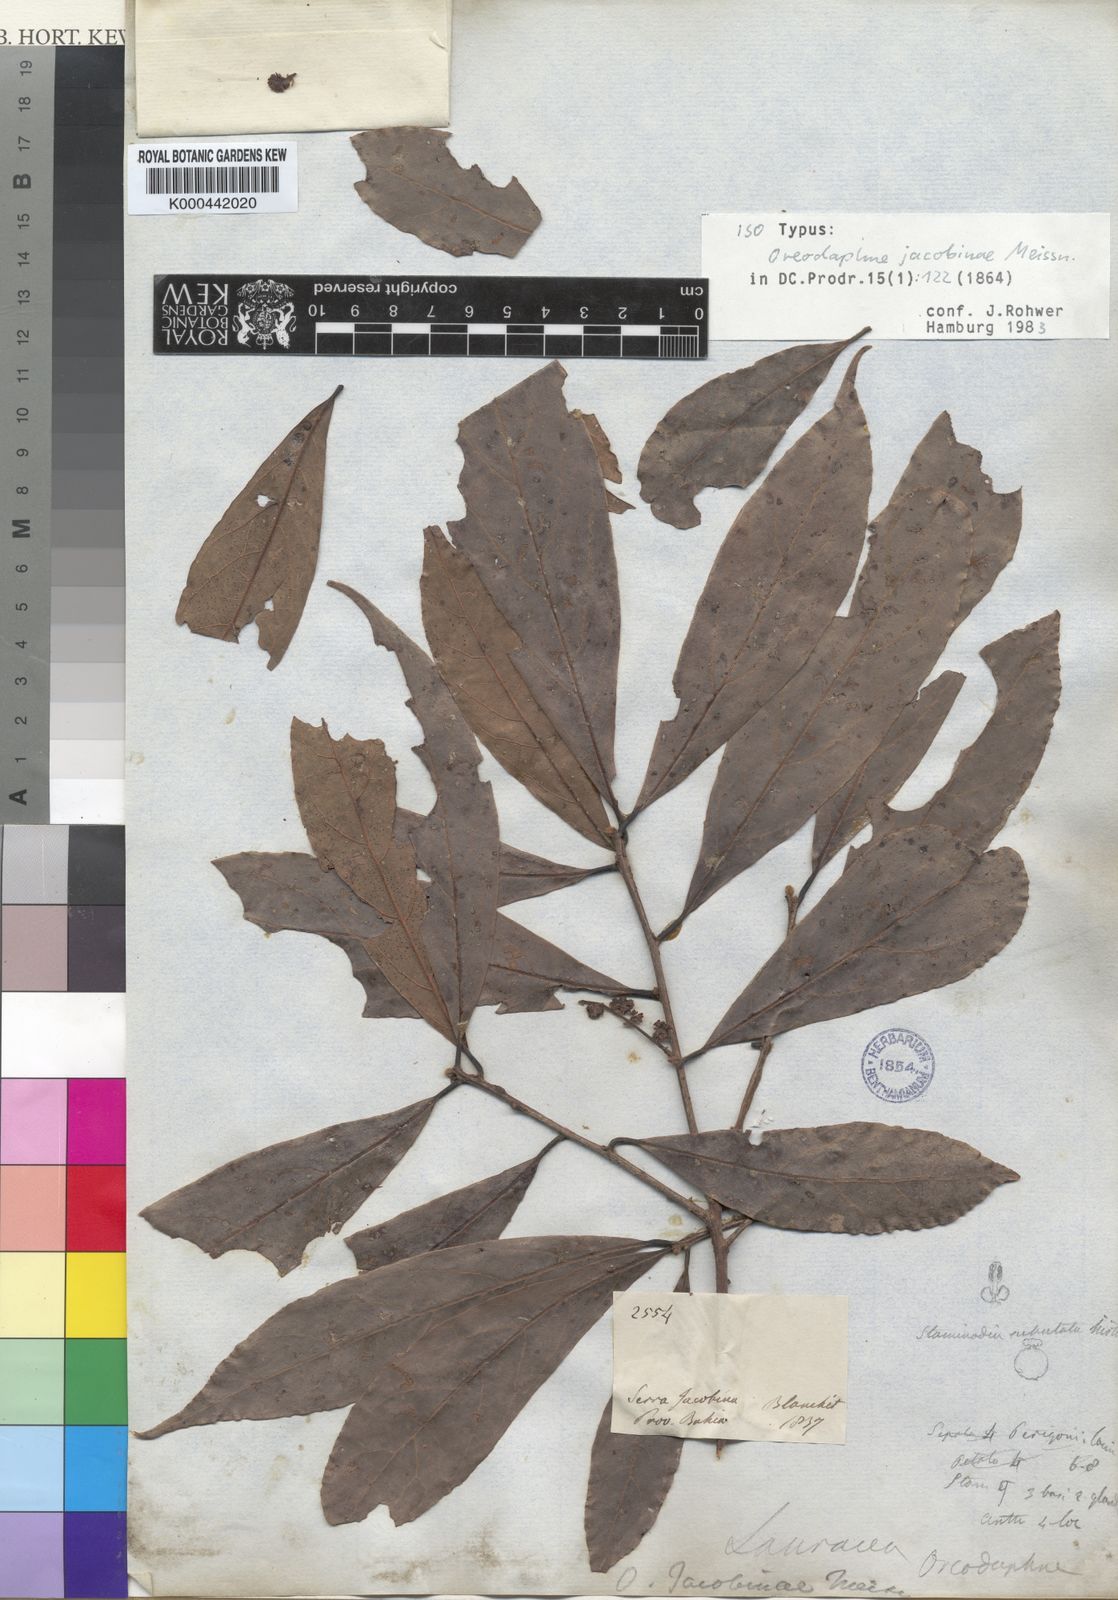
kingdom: Plantae
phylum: Tracheophyta
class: Magnoliopsida
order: Laurales
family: Lauraceae
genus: Andea
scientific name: Andea velutina
